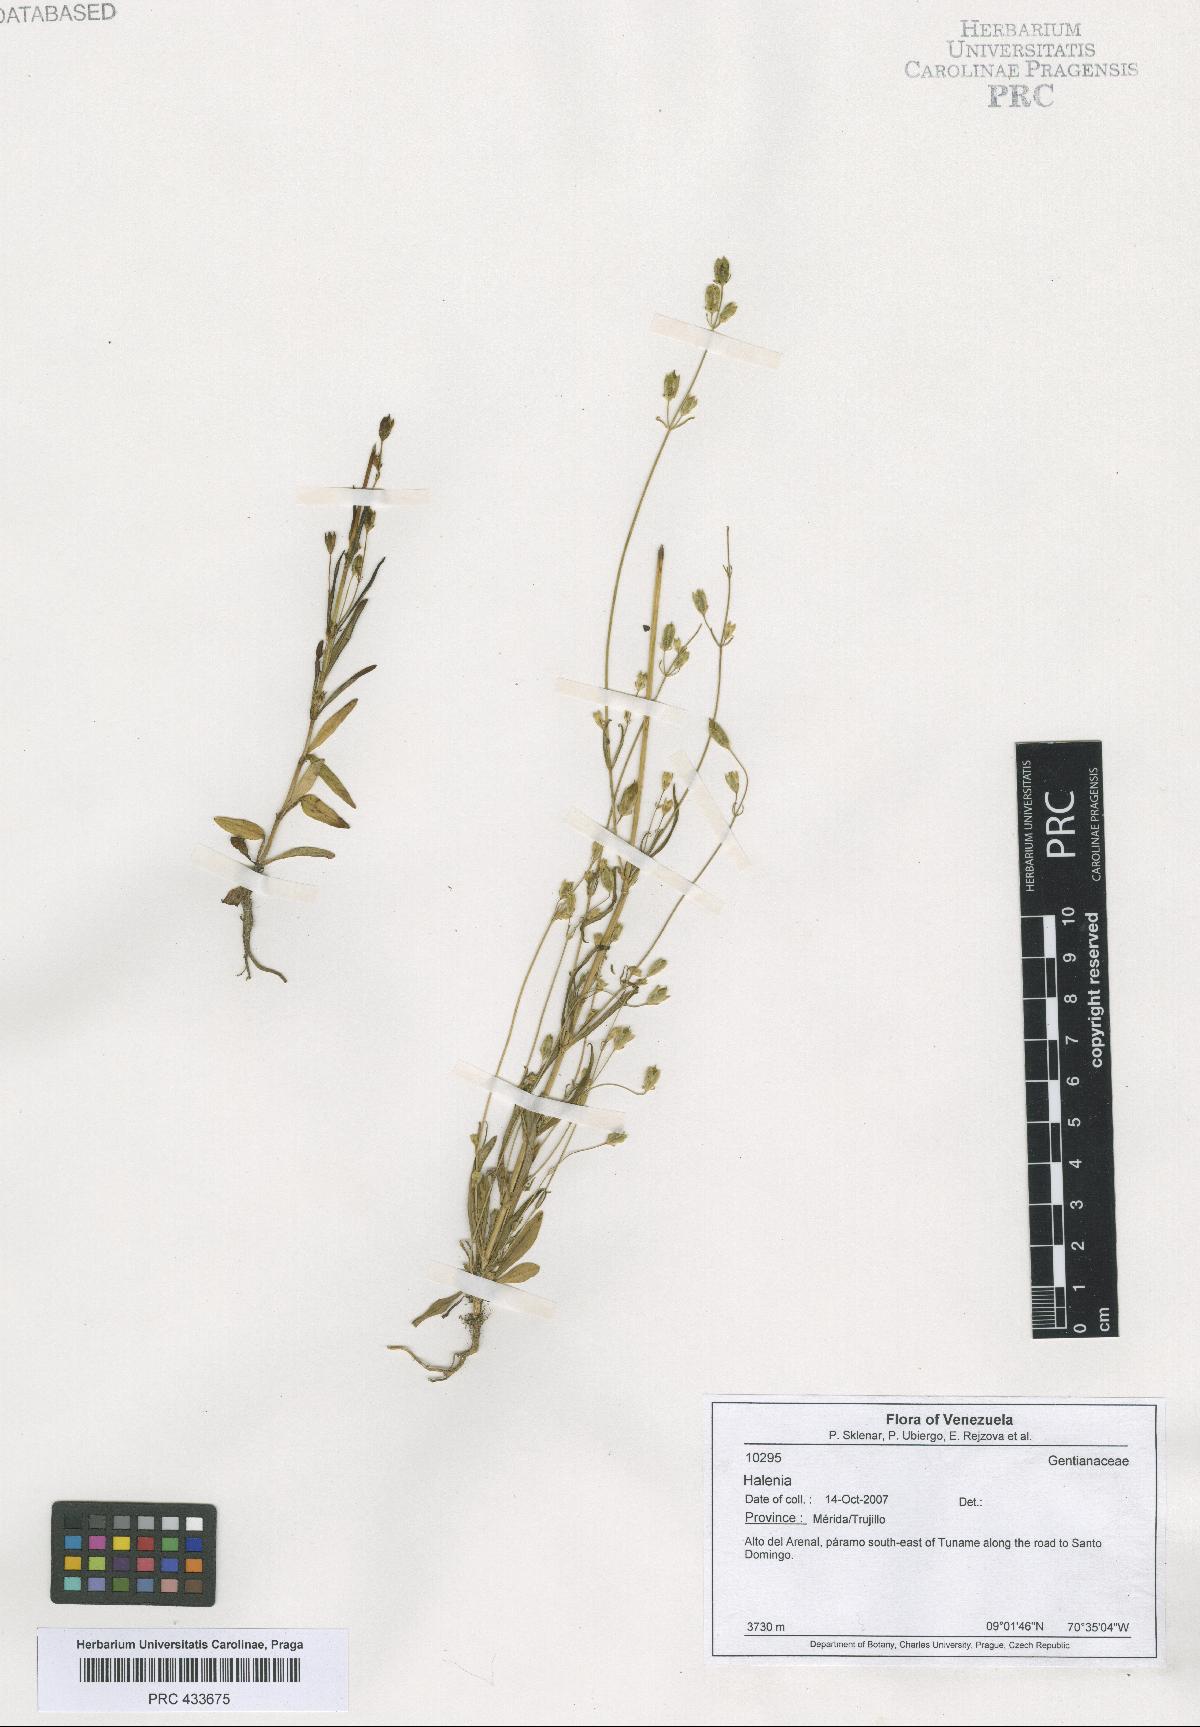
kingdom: Plantae
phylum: Tracheophyta
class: Magnoliopsida
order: Gentianales
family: Gentianaceae
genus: Halenia
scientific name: Halenia
